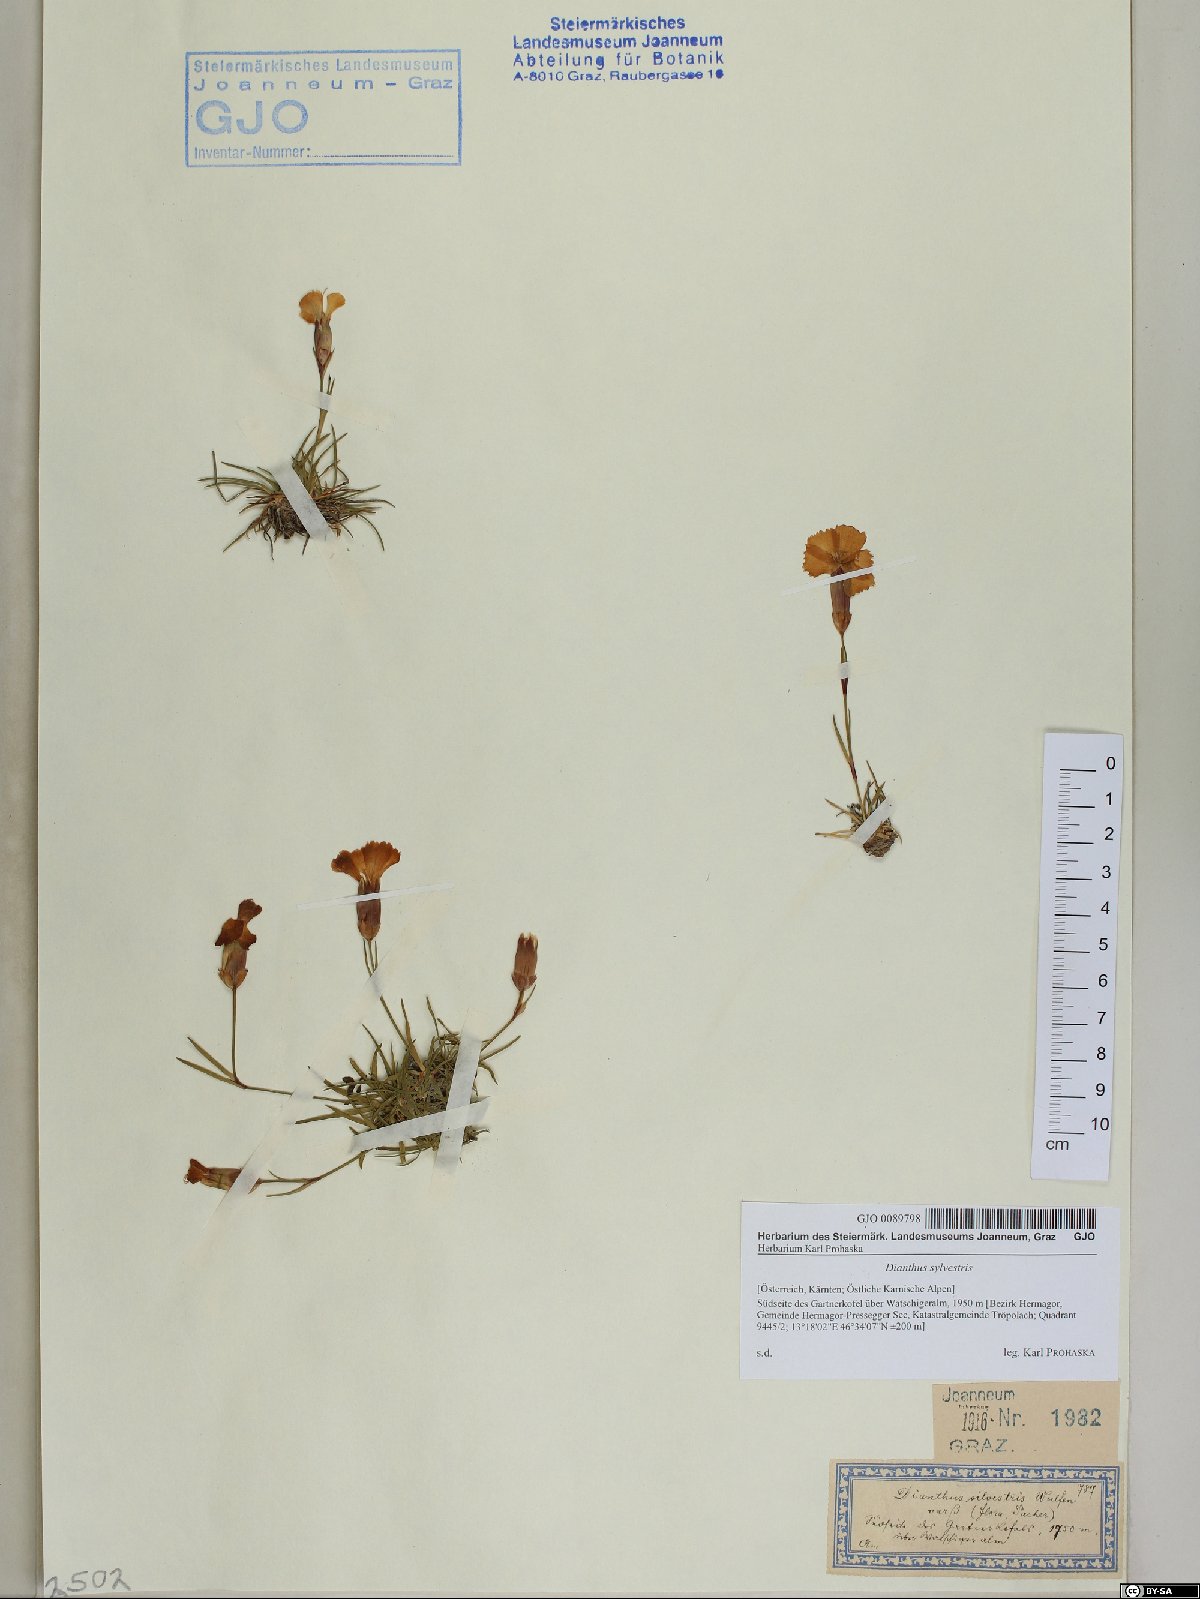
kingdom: Plantae
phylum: Tracheophyta
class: Magnoliopsida
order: Caryophyllales
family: Caryophyllaceae
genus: Dianthus
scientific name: Dianthus sylvestris
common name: Wood pink
